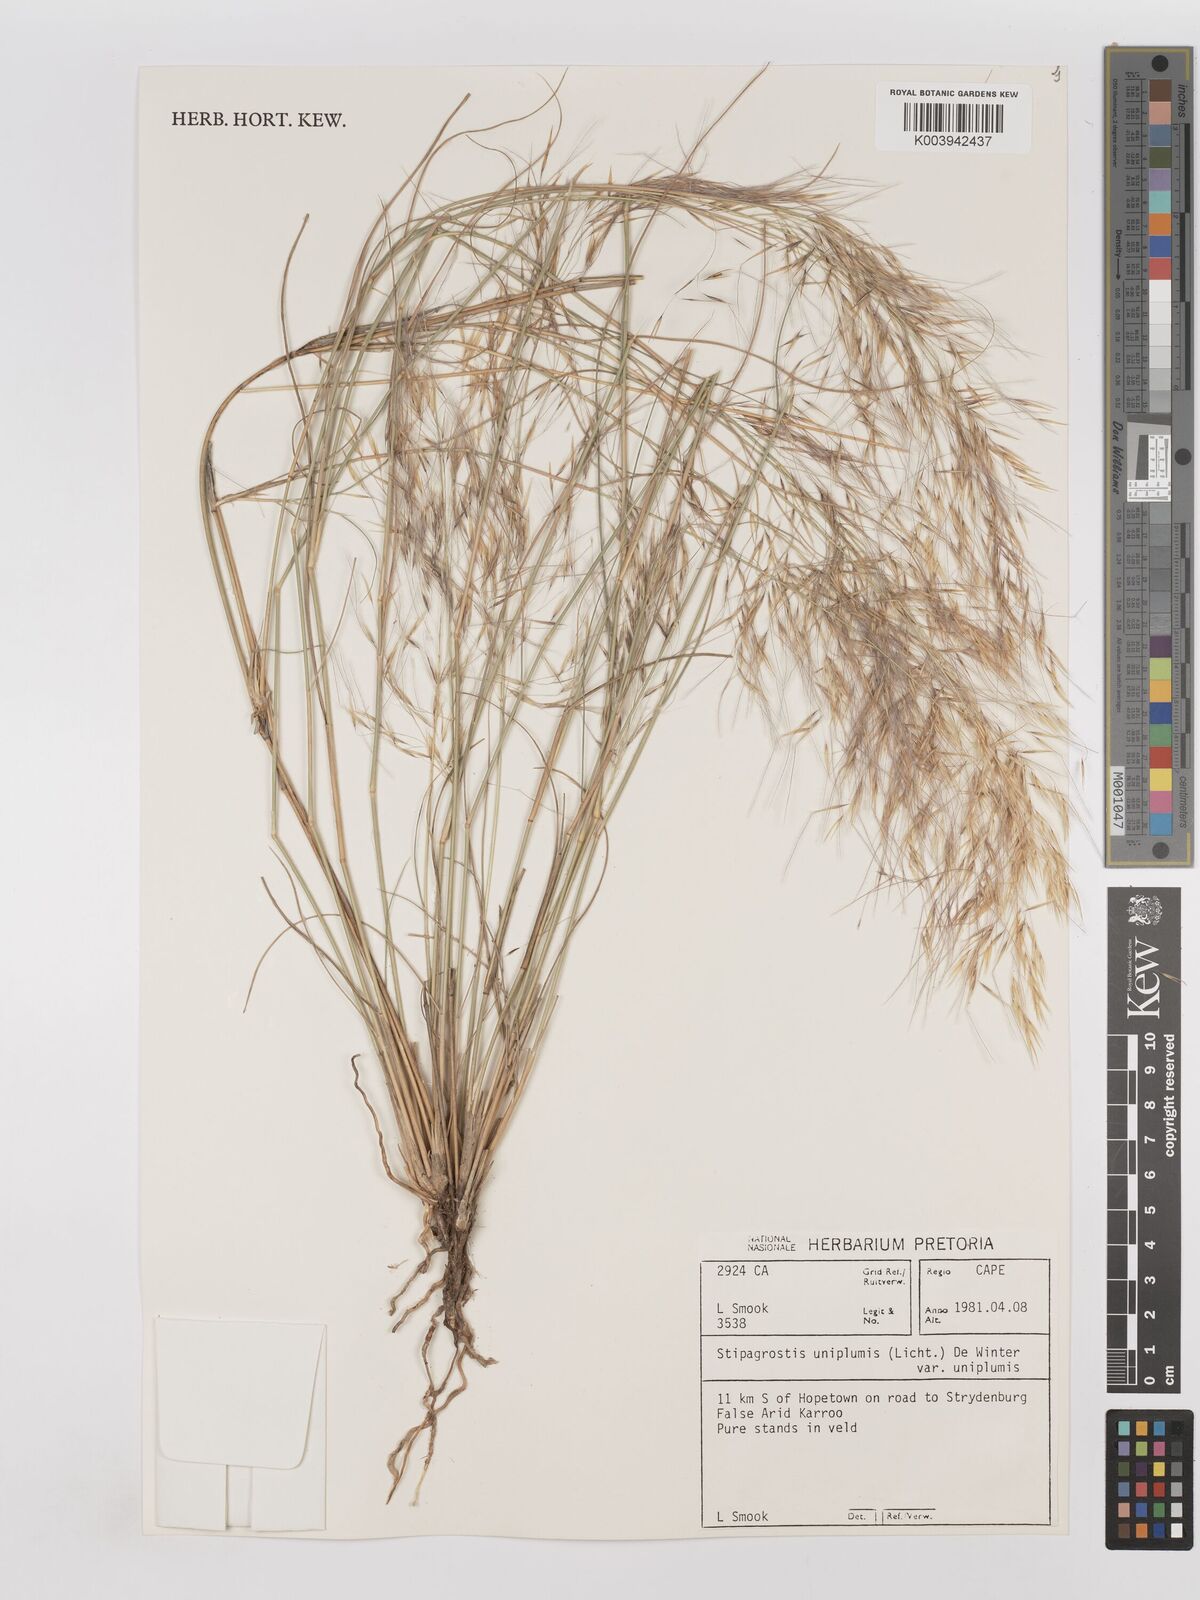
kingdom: Plantae
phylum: Tracheophyta
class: Liliopsida
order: Poales
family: Poaceae
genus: Stipagrostis
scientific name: Stipagrostis uniplumis
